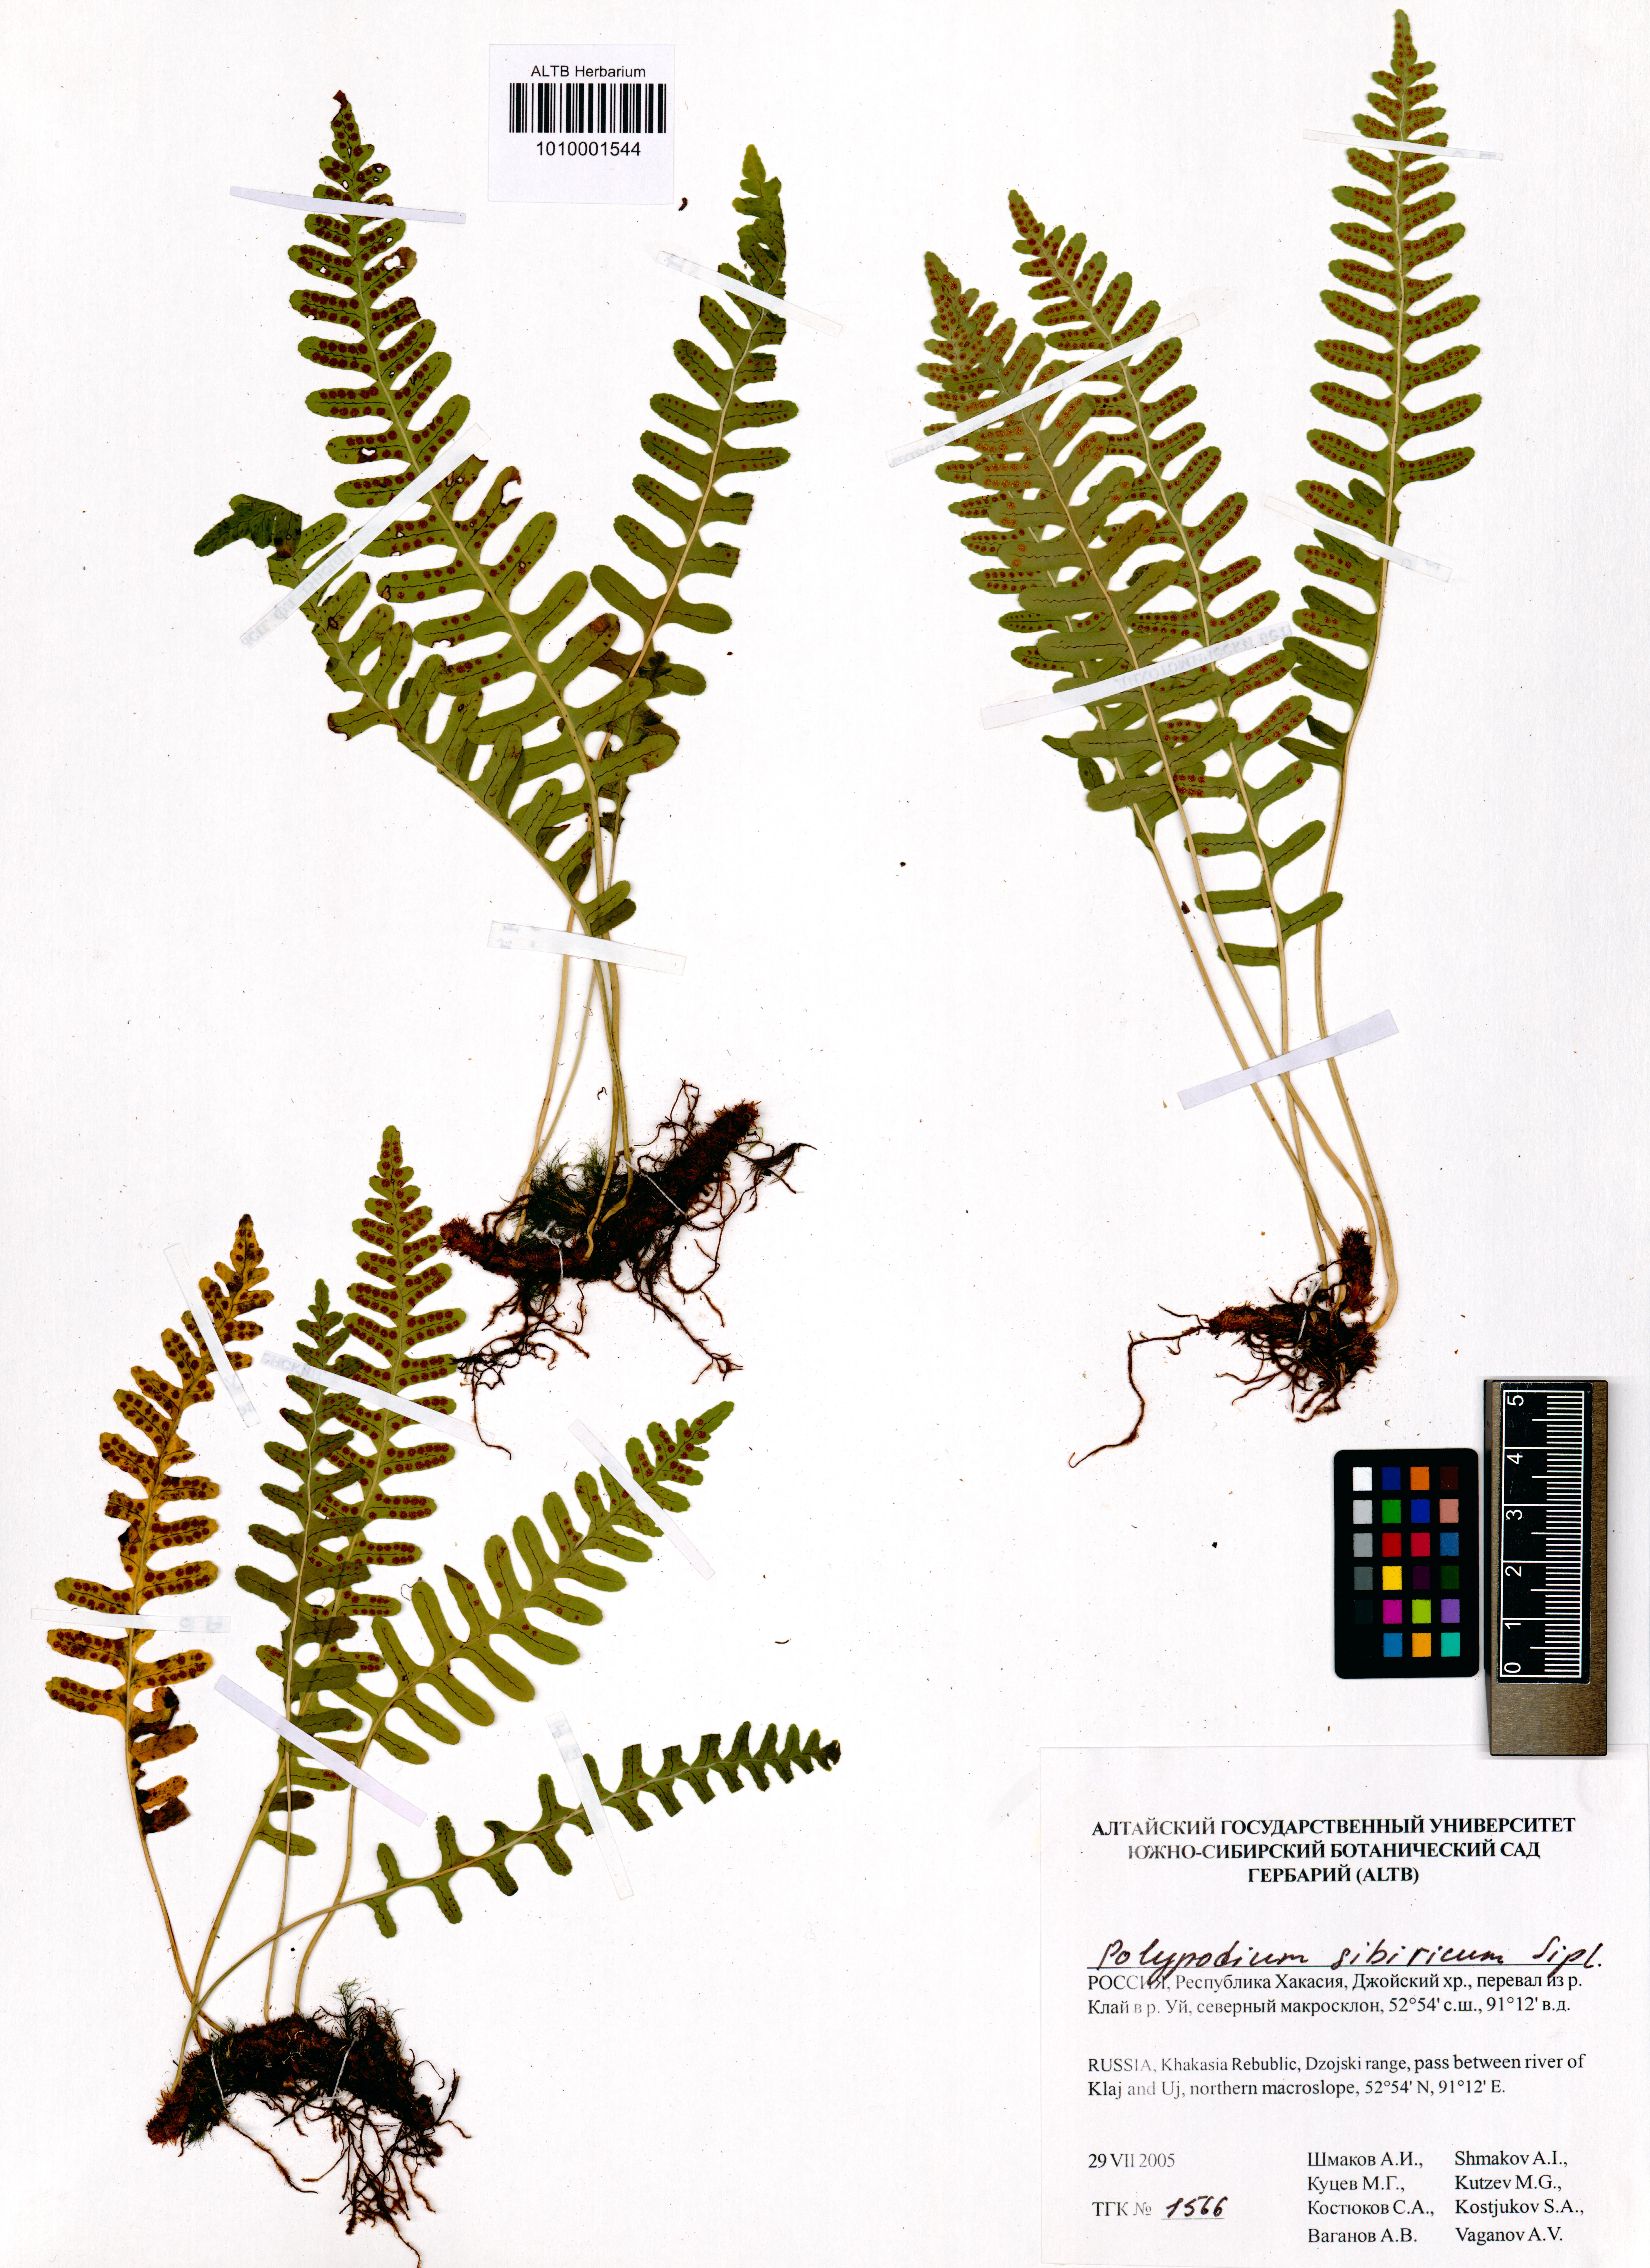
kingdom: Plantae
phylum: Tracheophyta
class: Polypodiopsida
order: Polypodiales
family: Polypodiaceae
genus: Polypodium
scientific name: Polypodium sibiricum
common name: Siberian polypody
